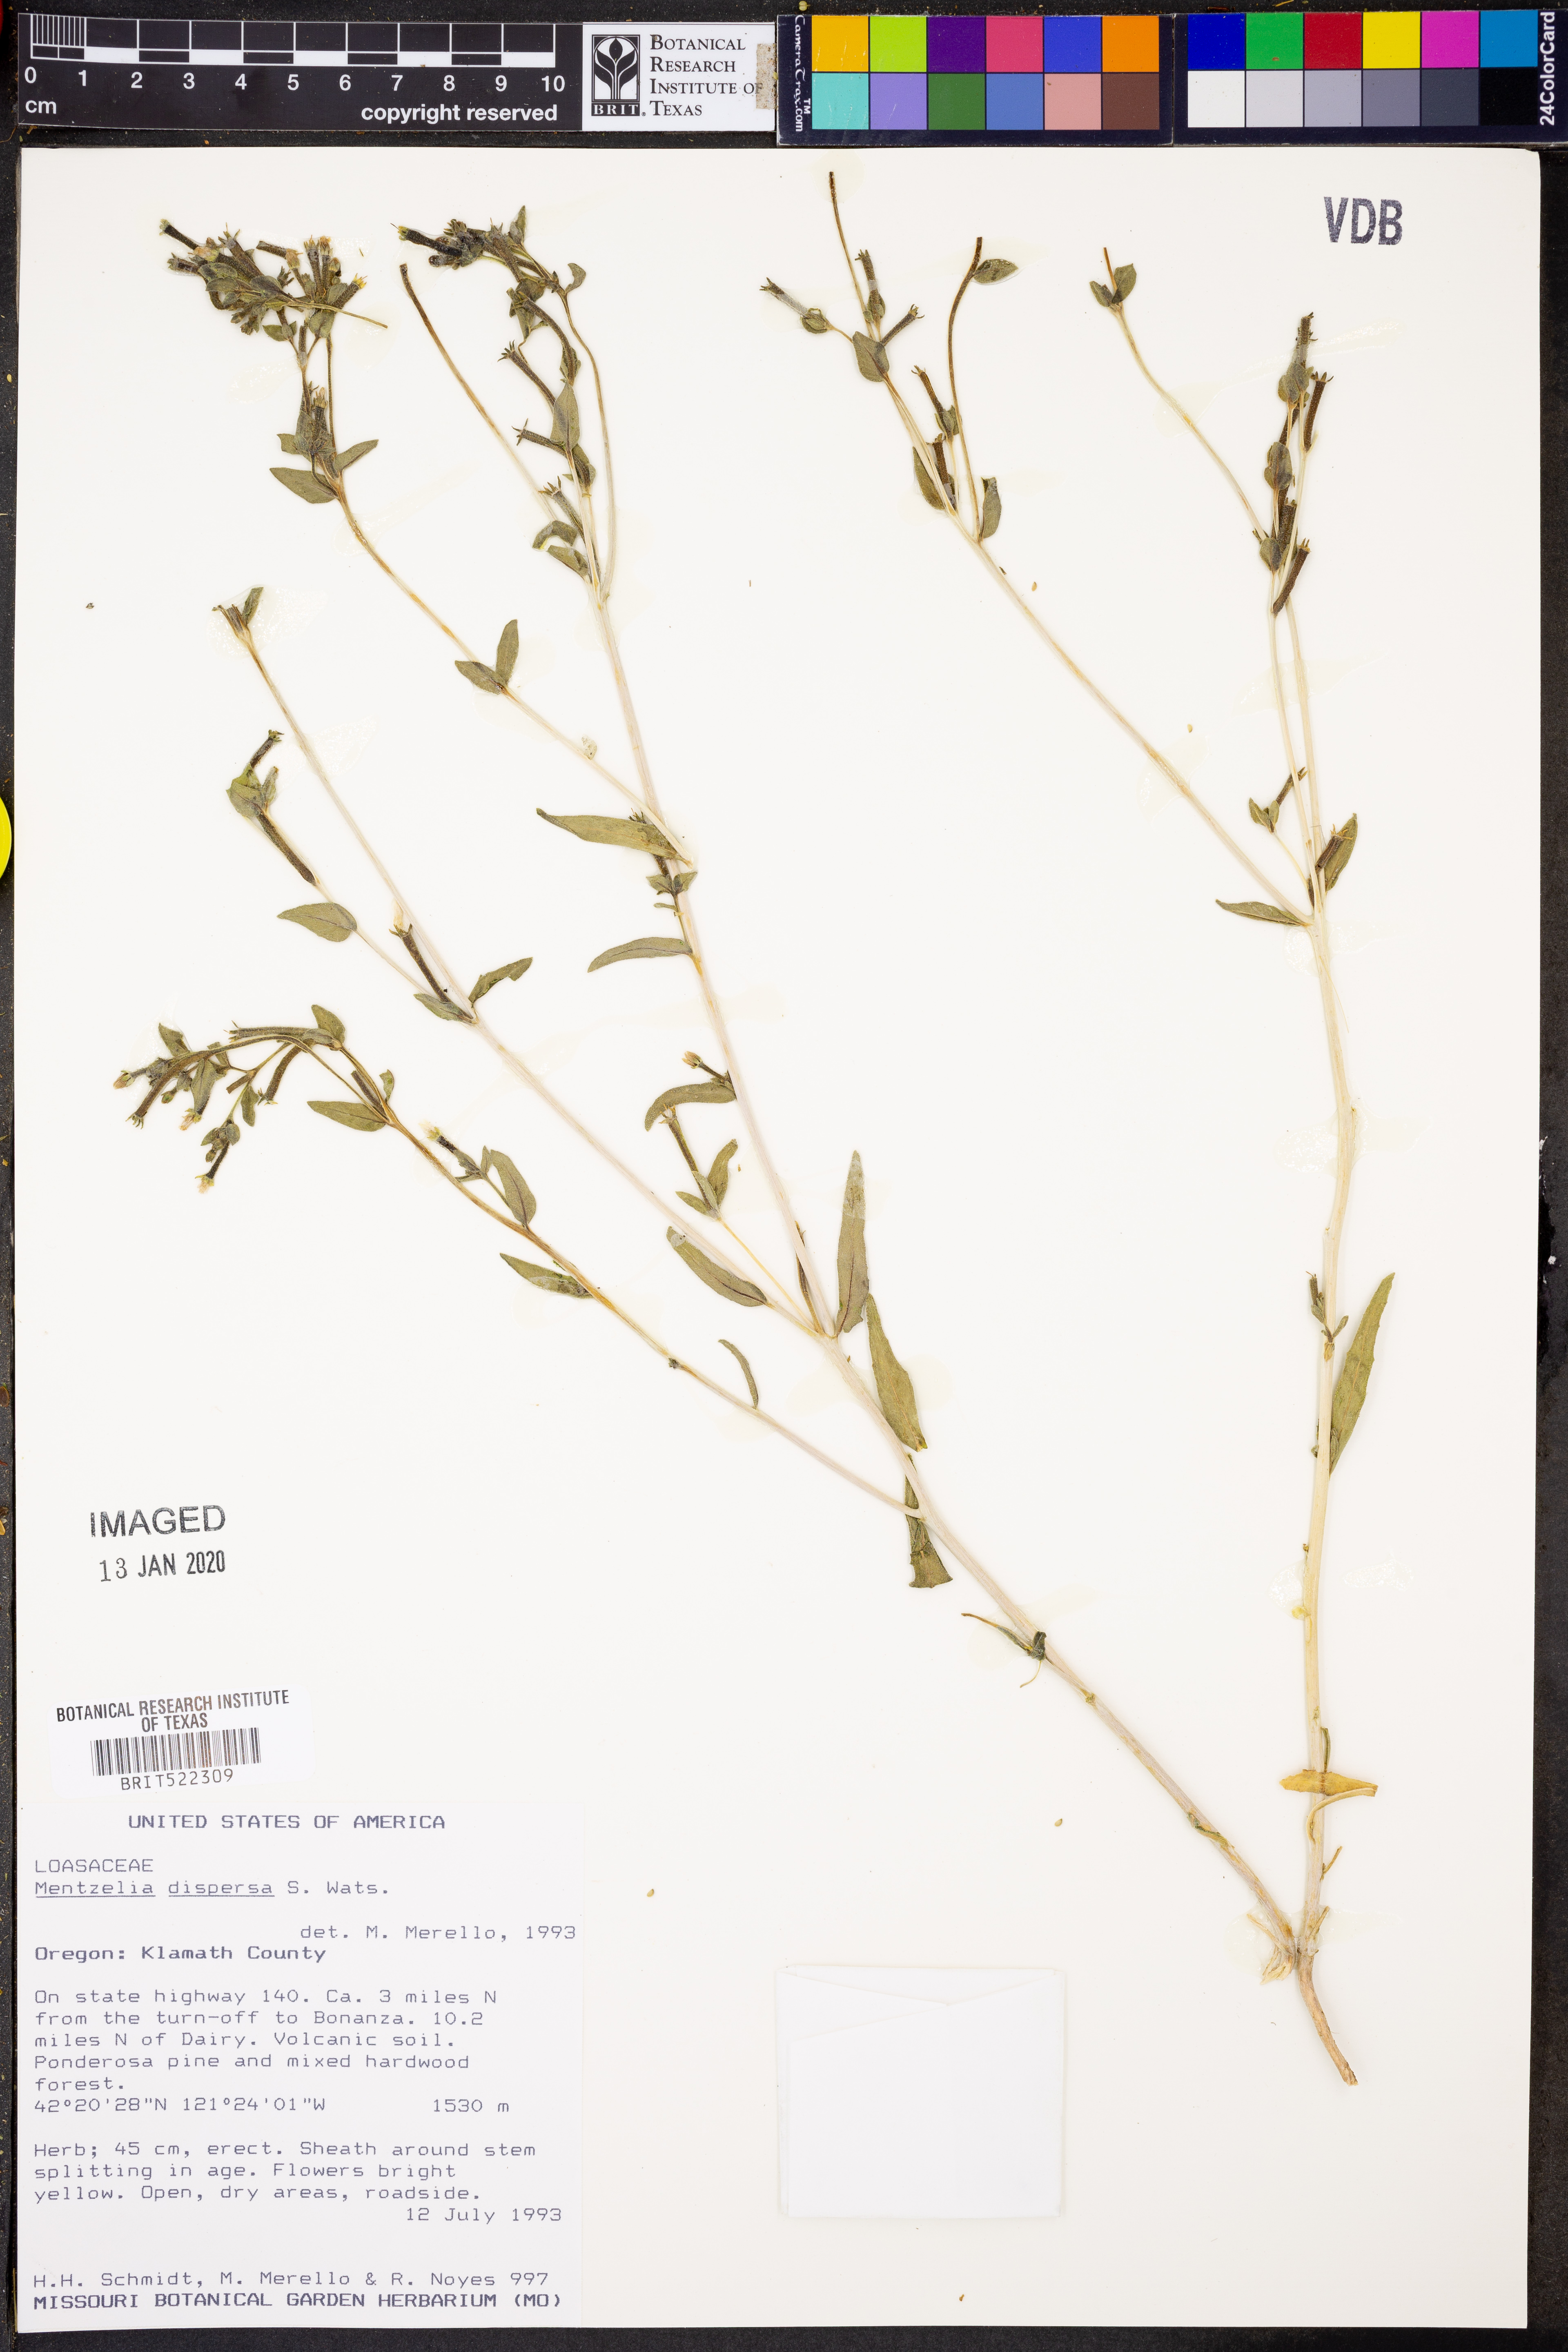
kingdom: Plantae
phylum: Tracheophyta
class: Magnoliopsida
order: Cornales
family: Loasaceae
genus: Mentzelia
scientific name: Mentzelia dispersa
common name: Nada stickleaf
